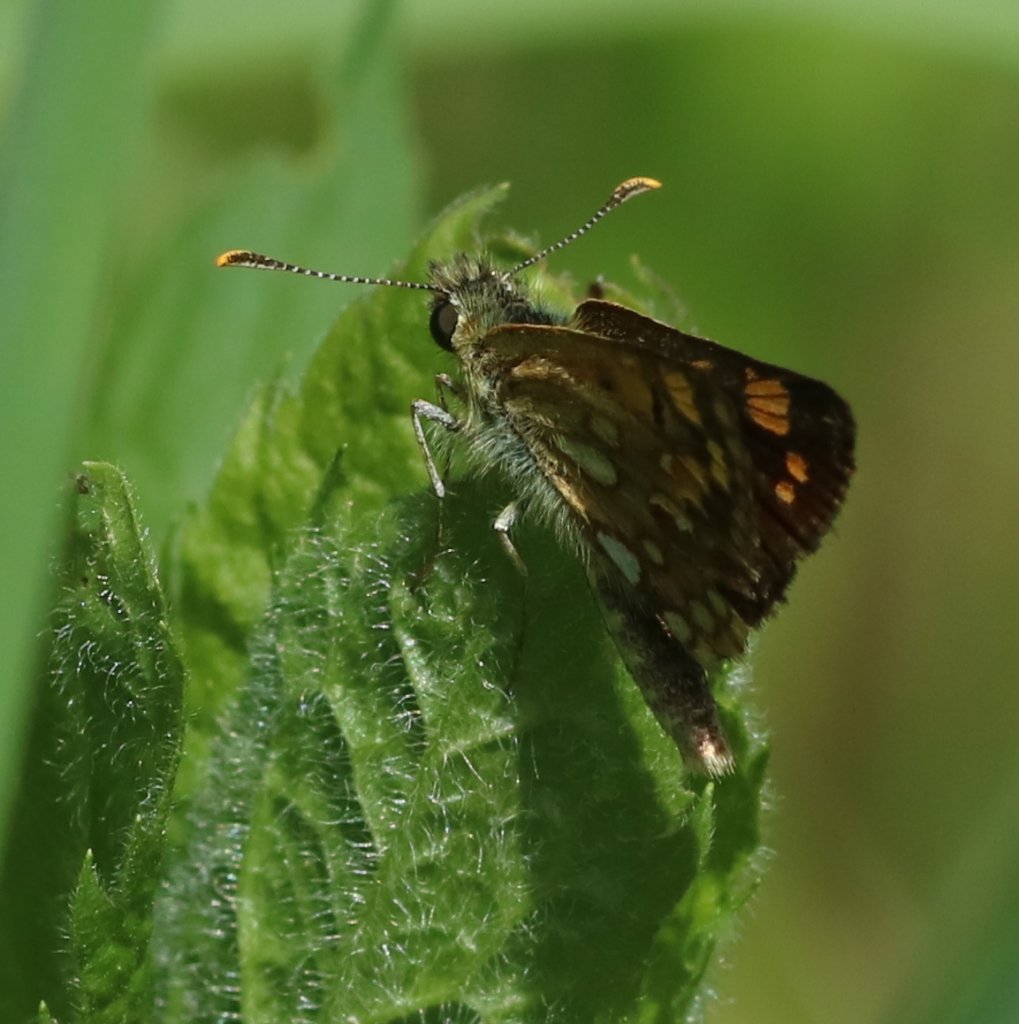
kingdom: Animalia
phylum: Arthropoda
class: Insecta
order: Lepidoptera
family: Hesperiidae
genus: Carterocephalus
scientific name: Carterocephalus palaemon
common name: Chequered Skipper
